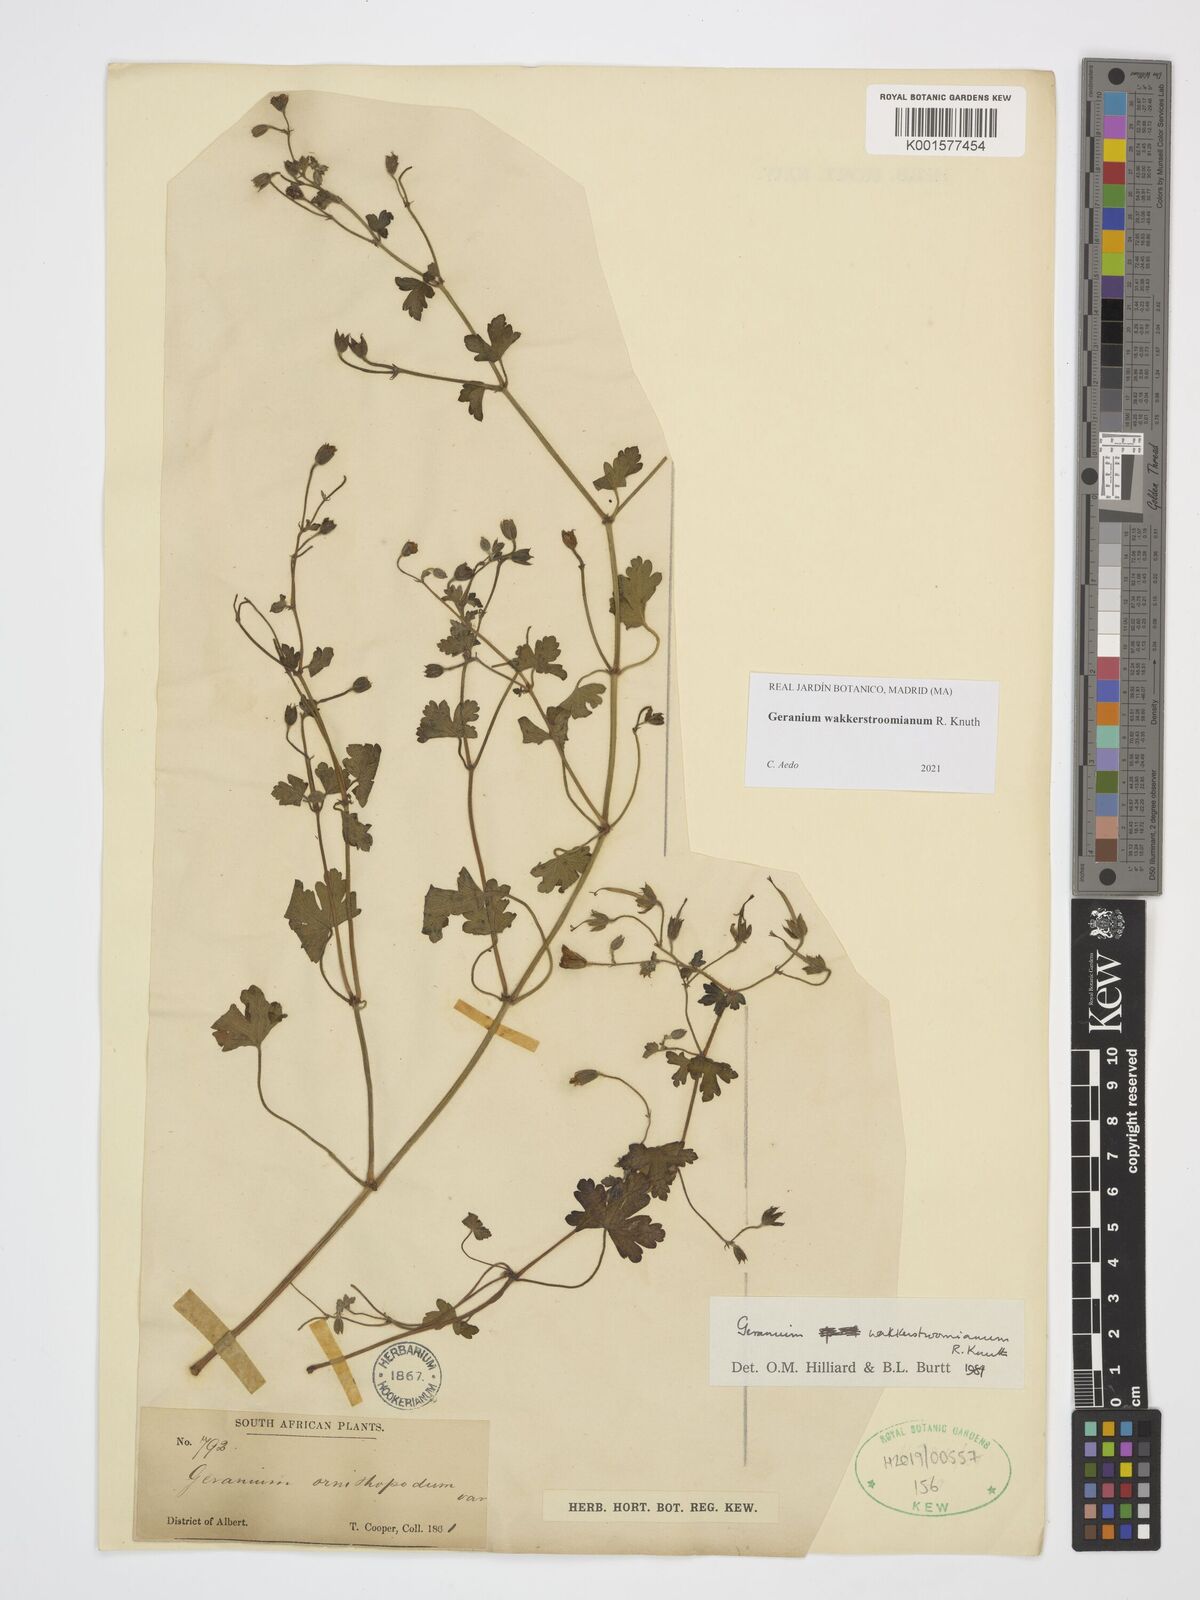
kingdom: Plantae
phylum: Tracheophyta
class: Magnoliopsida
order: Geraniales
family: Geraniaceae
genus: Geranium
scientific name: Geranium wakkerstroomianum
